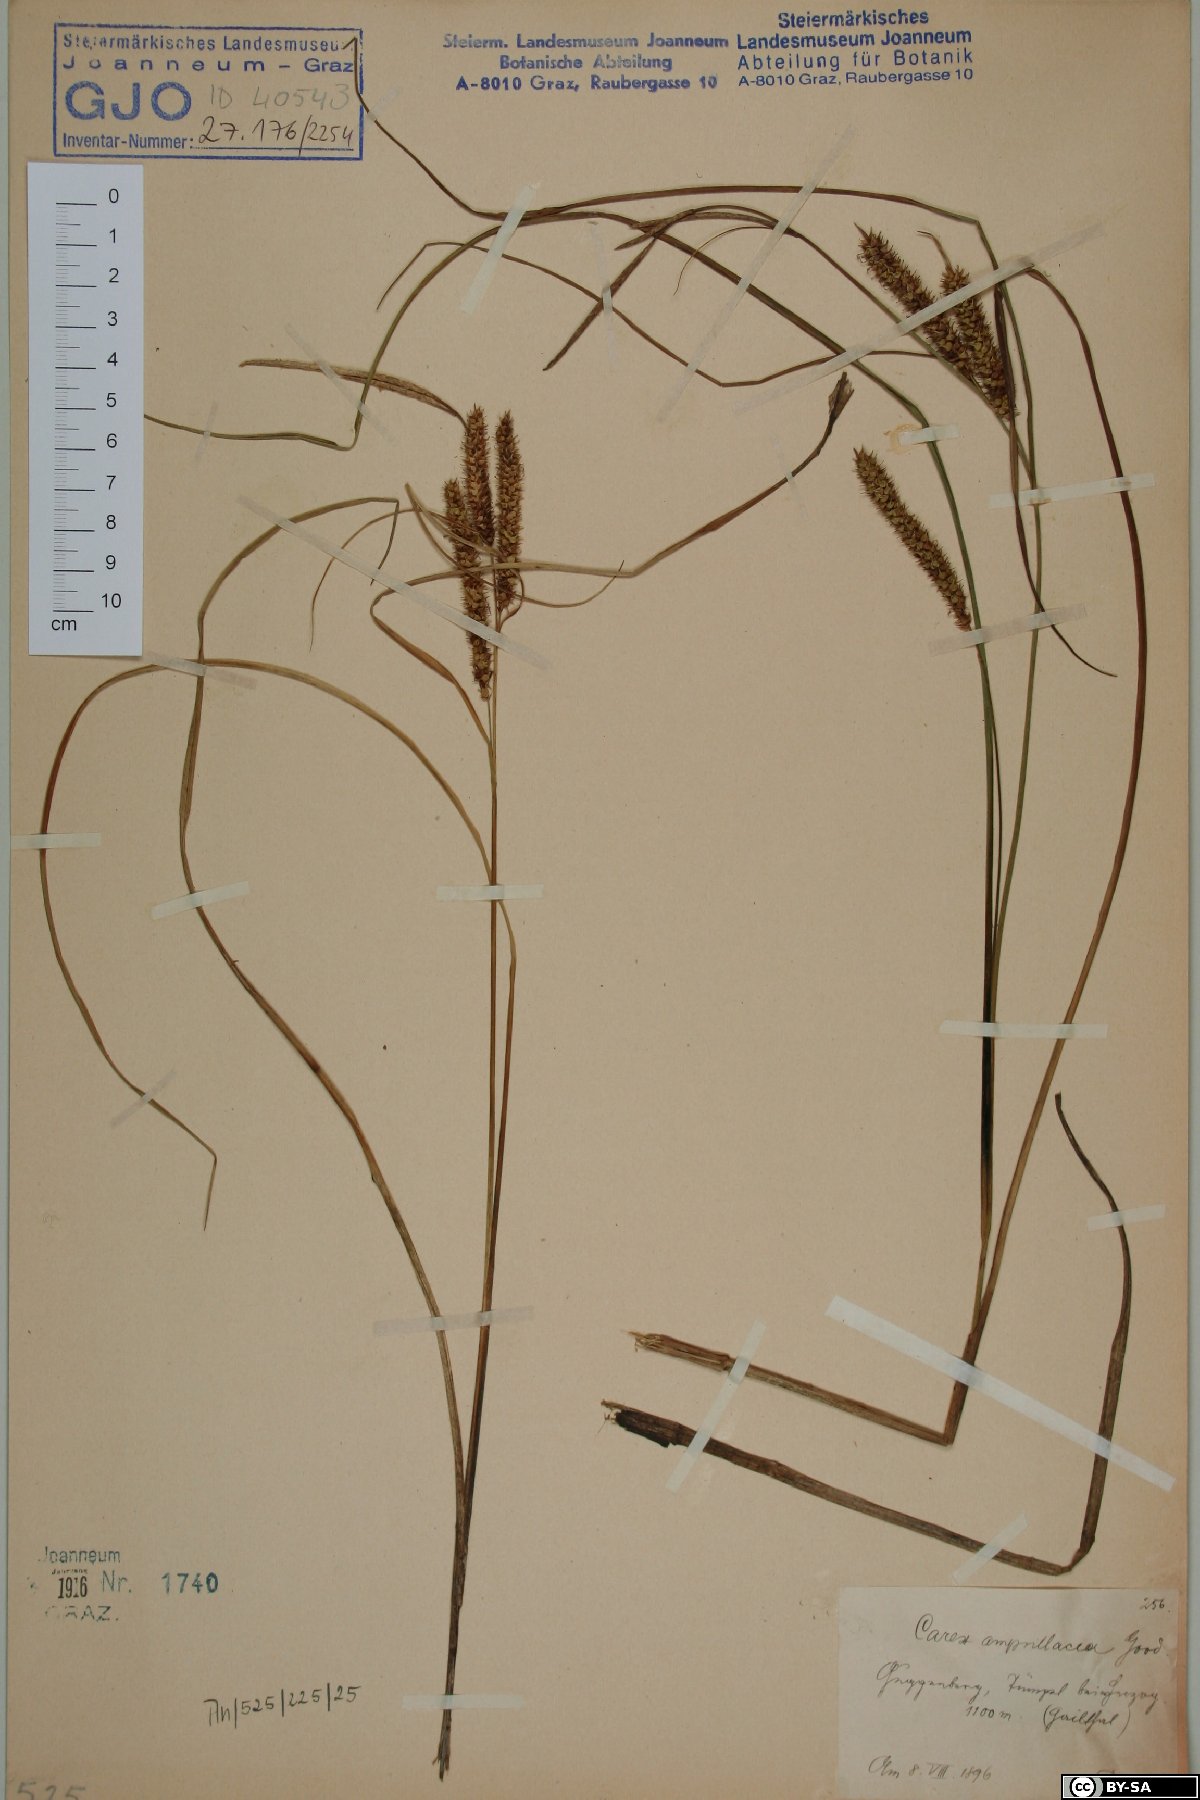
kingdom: Plantae
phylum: Tracheophyta
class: Liliopsida
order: Poales
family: Cyperaceae
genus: Carex
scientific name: Carex rostrata
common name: Bottle sedge
